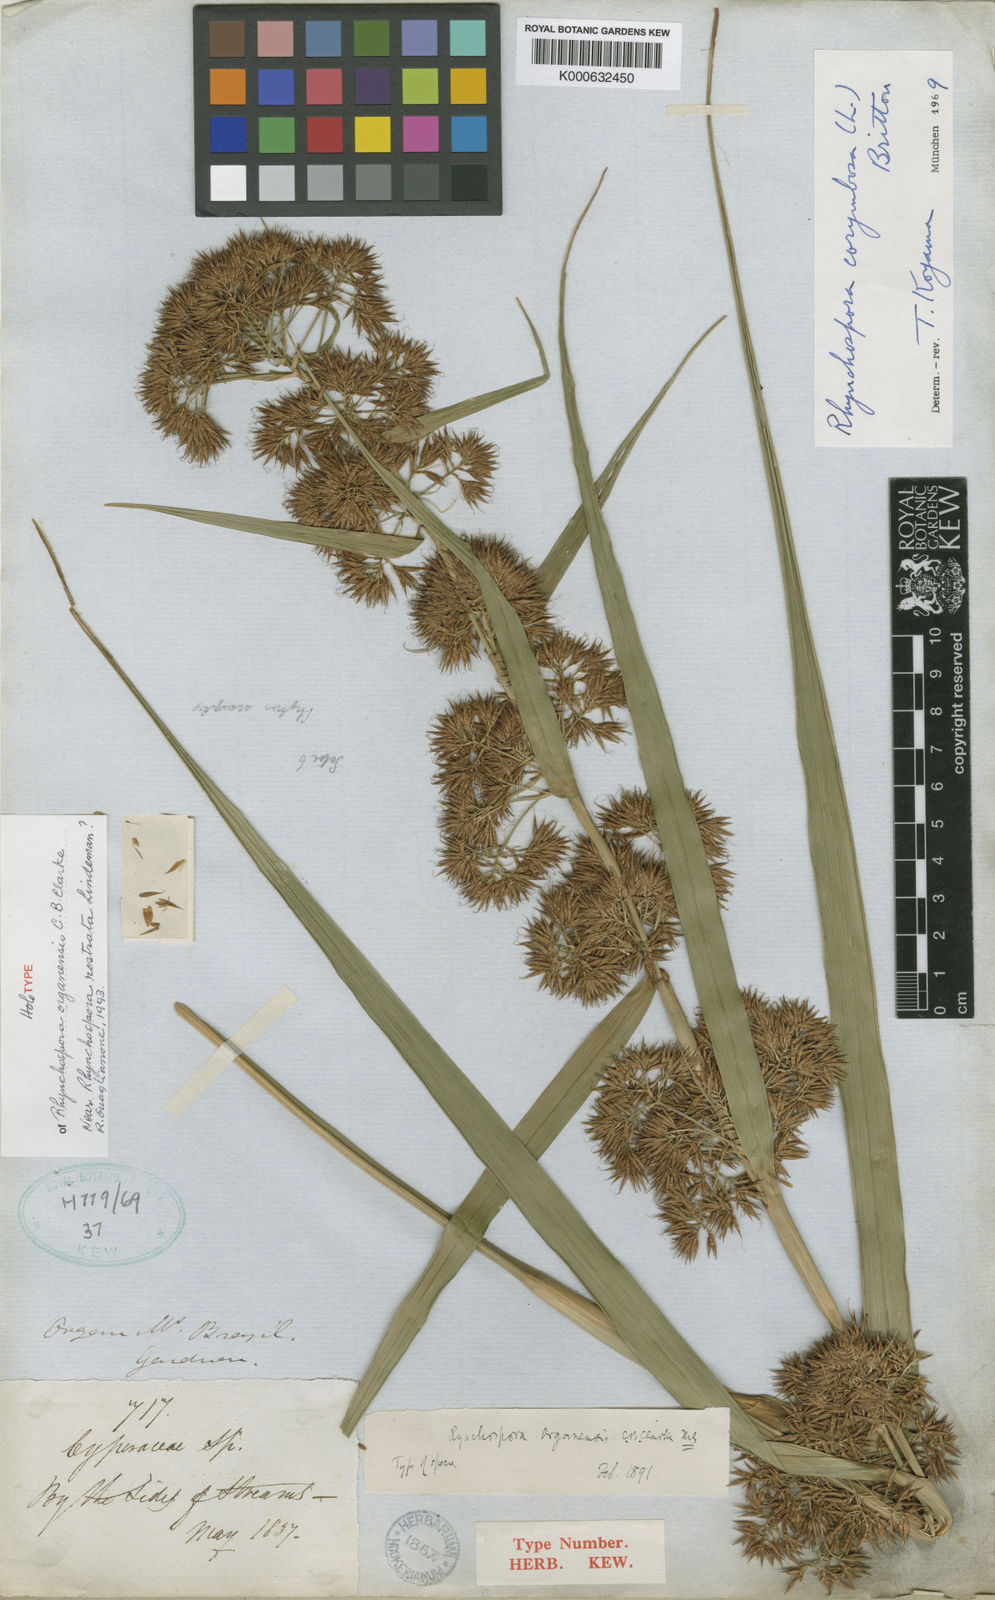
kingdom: Plantae
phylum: Tracheophyta
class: Liliopsida
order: Poales
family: Cyperaceae
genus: Rhynchospora
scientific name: Rhynchospora organensis
